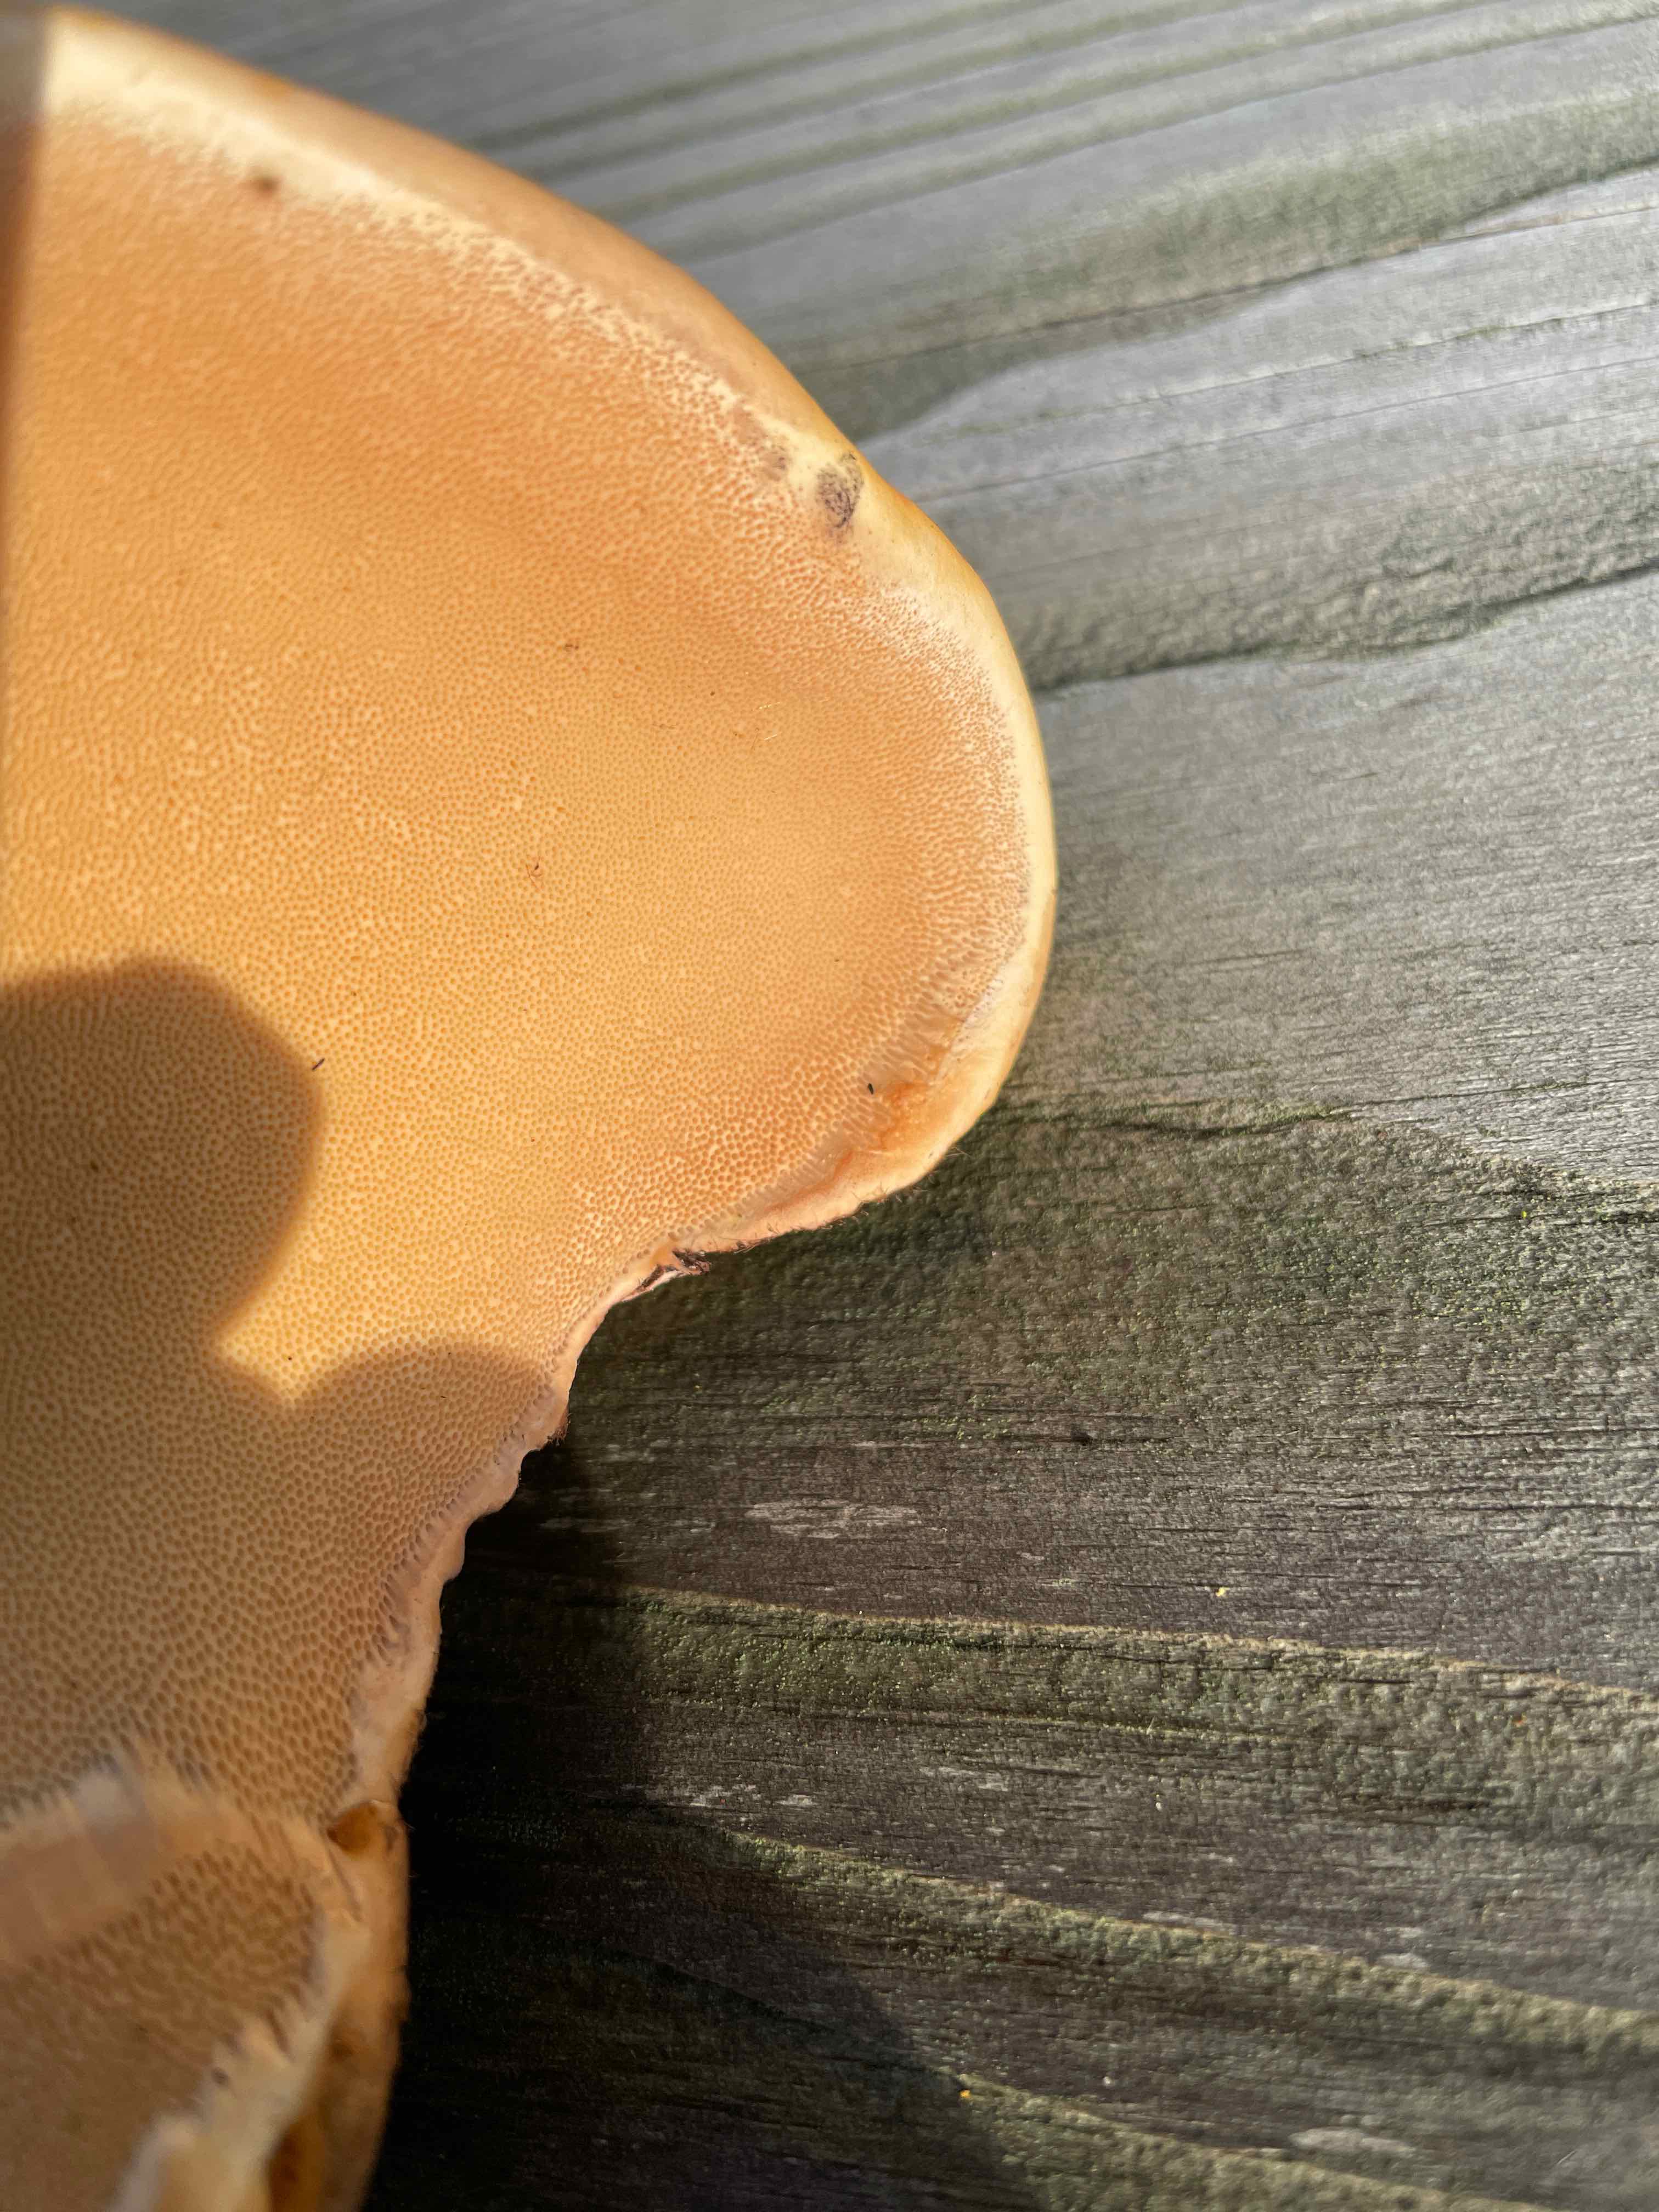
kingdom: Fungi
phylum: Basidiomycota
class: Agaricomycetes
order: Polyporales
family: Fomitopsidaceae
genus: Fomitopsis
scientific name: Fomitopsis pinicola
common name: randbæltet hovporesvamp
